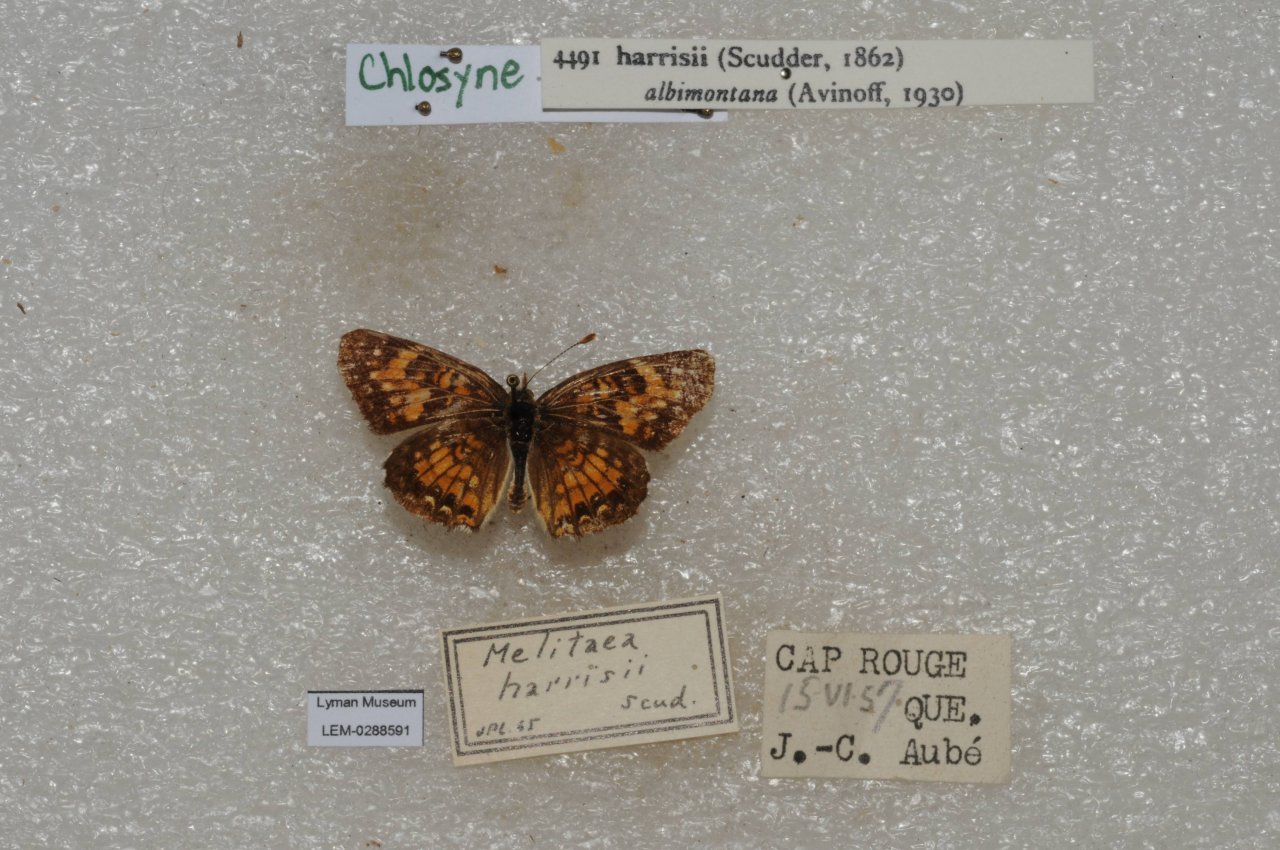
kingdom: Animalia
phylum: Arthropoda
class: Insecta
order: Lepidoptera
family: Nymphalidae
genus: Chlosyne
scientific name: Chlosyne harrisii
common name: Harris's Checkerspot
